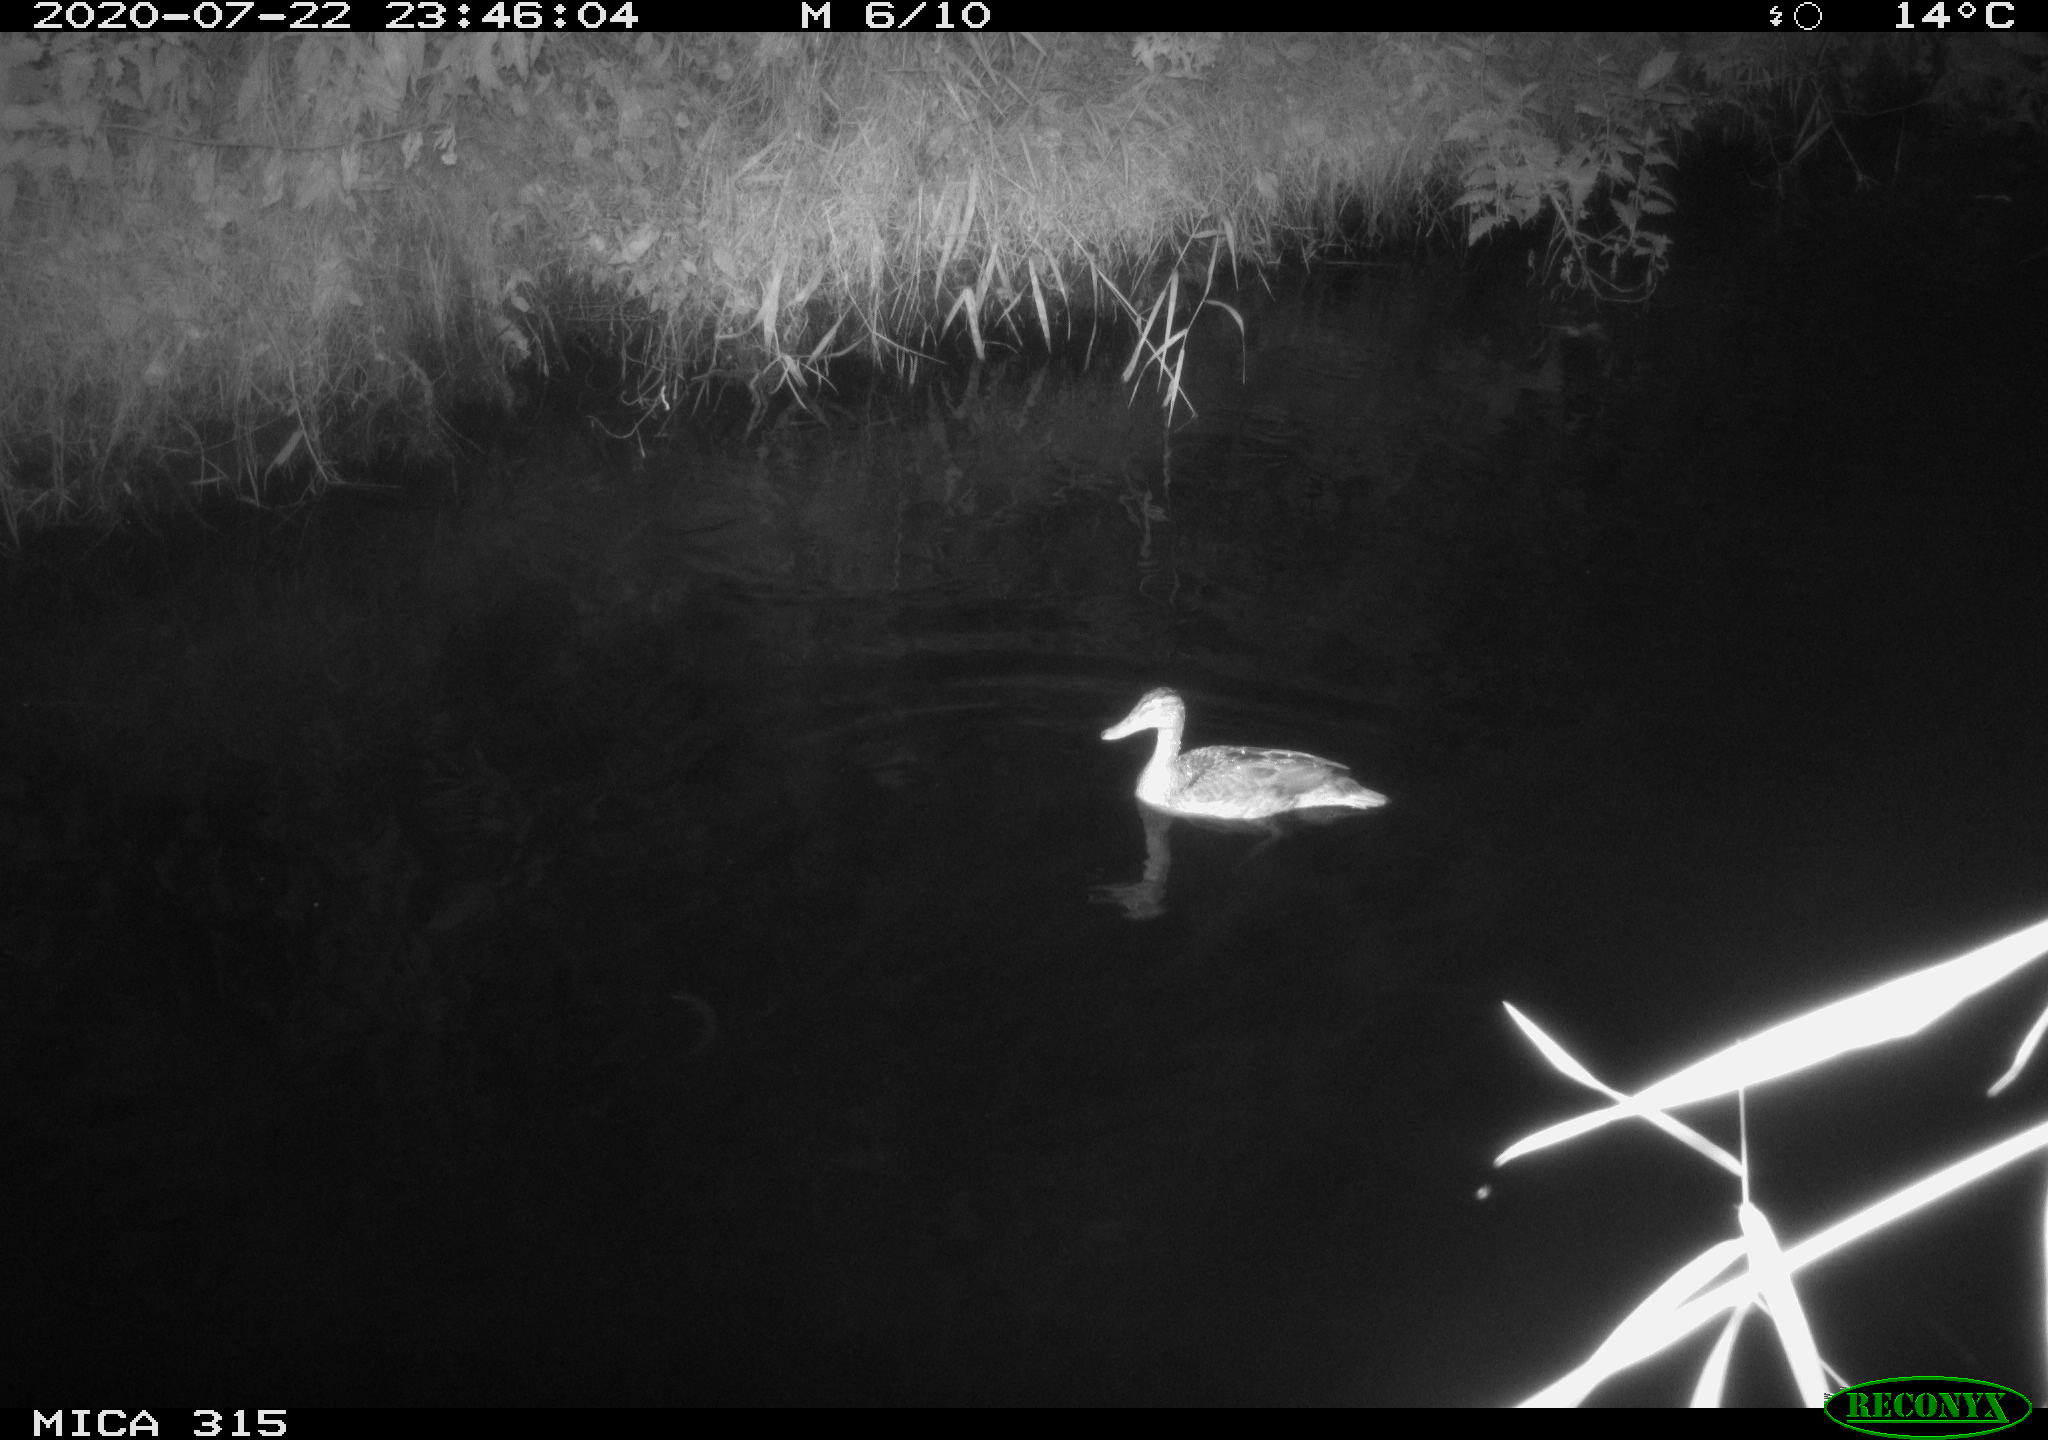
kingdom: Animalia
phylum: Chordata
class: Aves
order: Anseriformes
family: Anatidae
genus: Anas
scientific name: Anas platyrhynchos
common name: Mallard
